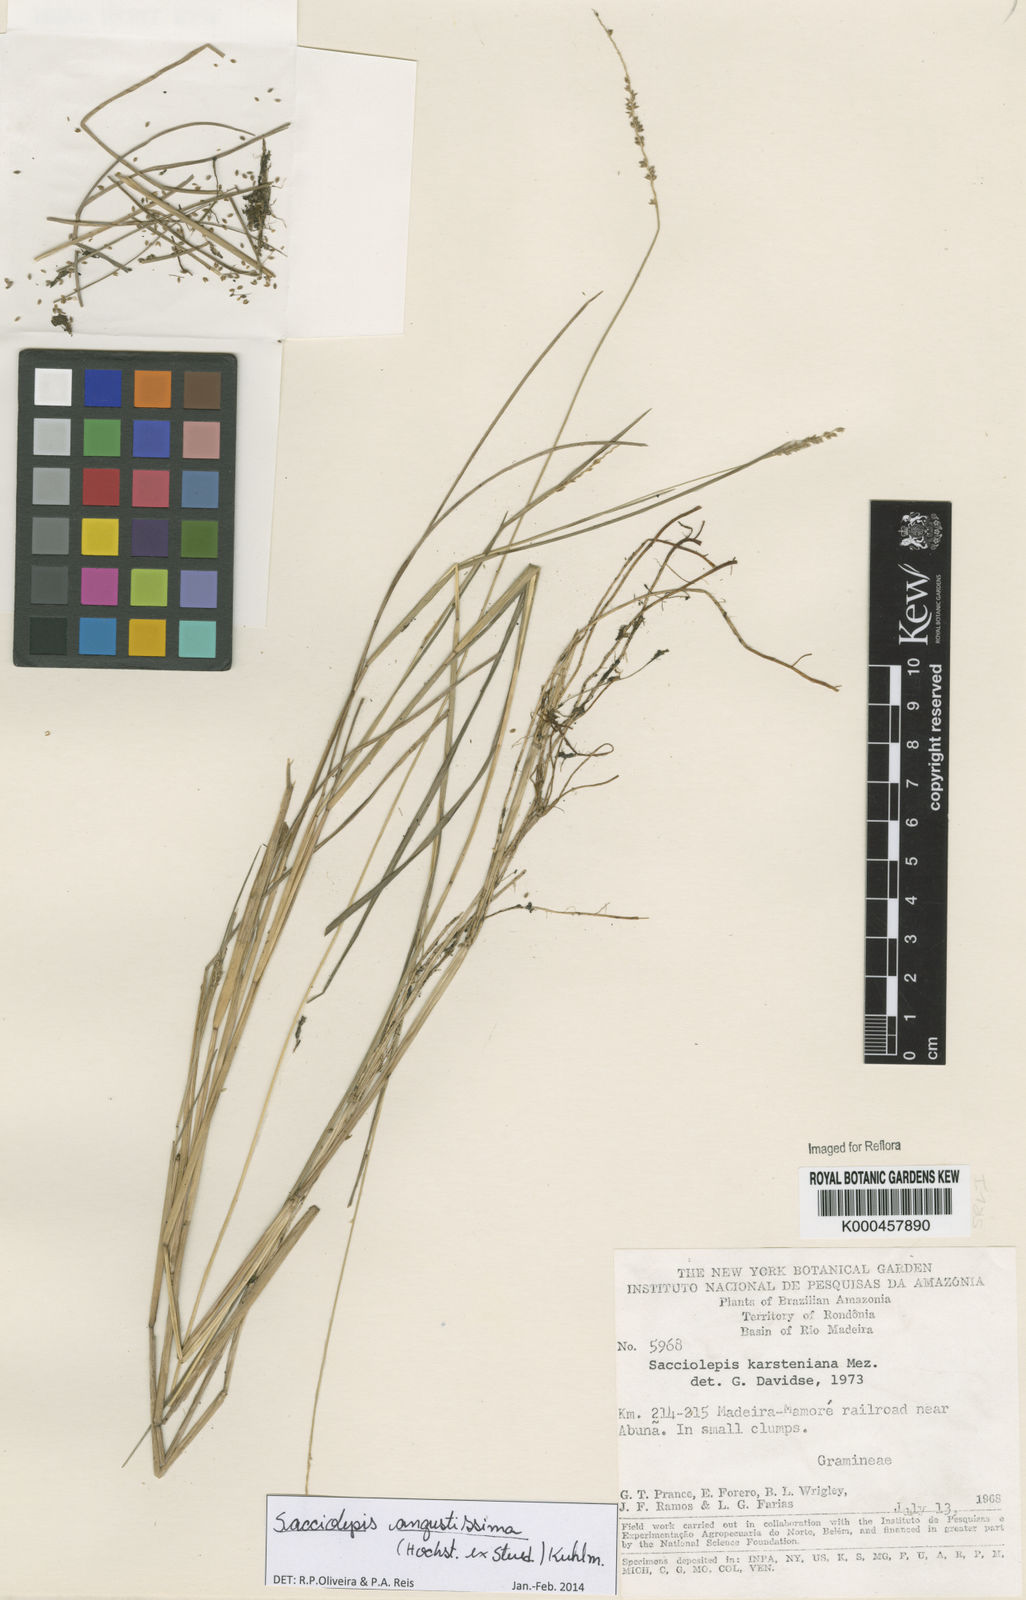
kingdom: Plantae
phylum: Tracheophyta
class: Liliopsida
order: Poales
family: Poaceae
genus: Sacciolepis
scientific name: Sacciolepis angustissima
